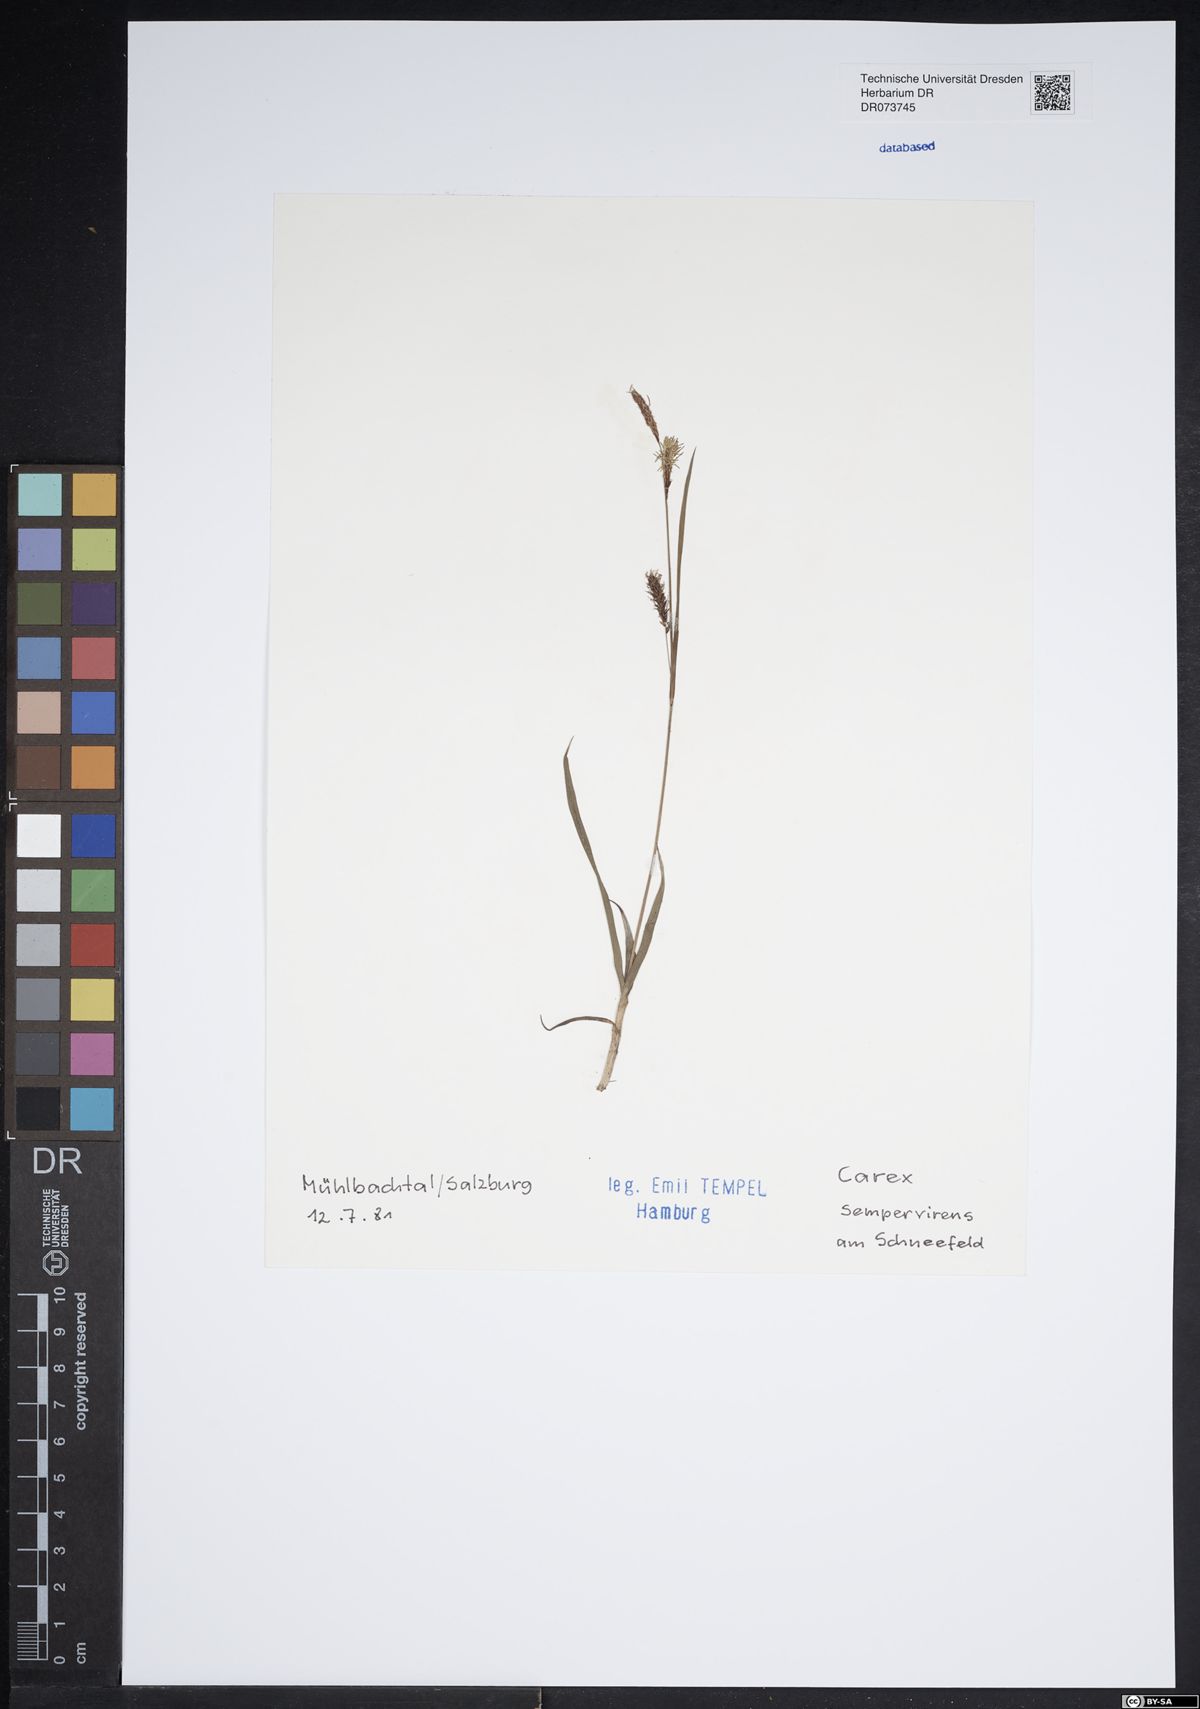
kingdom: Plantae
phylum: Tracheophyta
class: Liliopsida
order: Poales
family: Cyperaceae
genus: Carex
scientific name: Carex sempervirens
